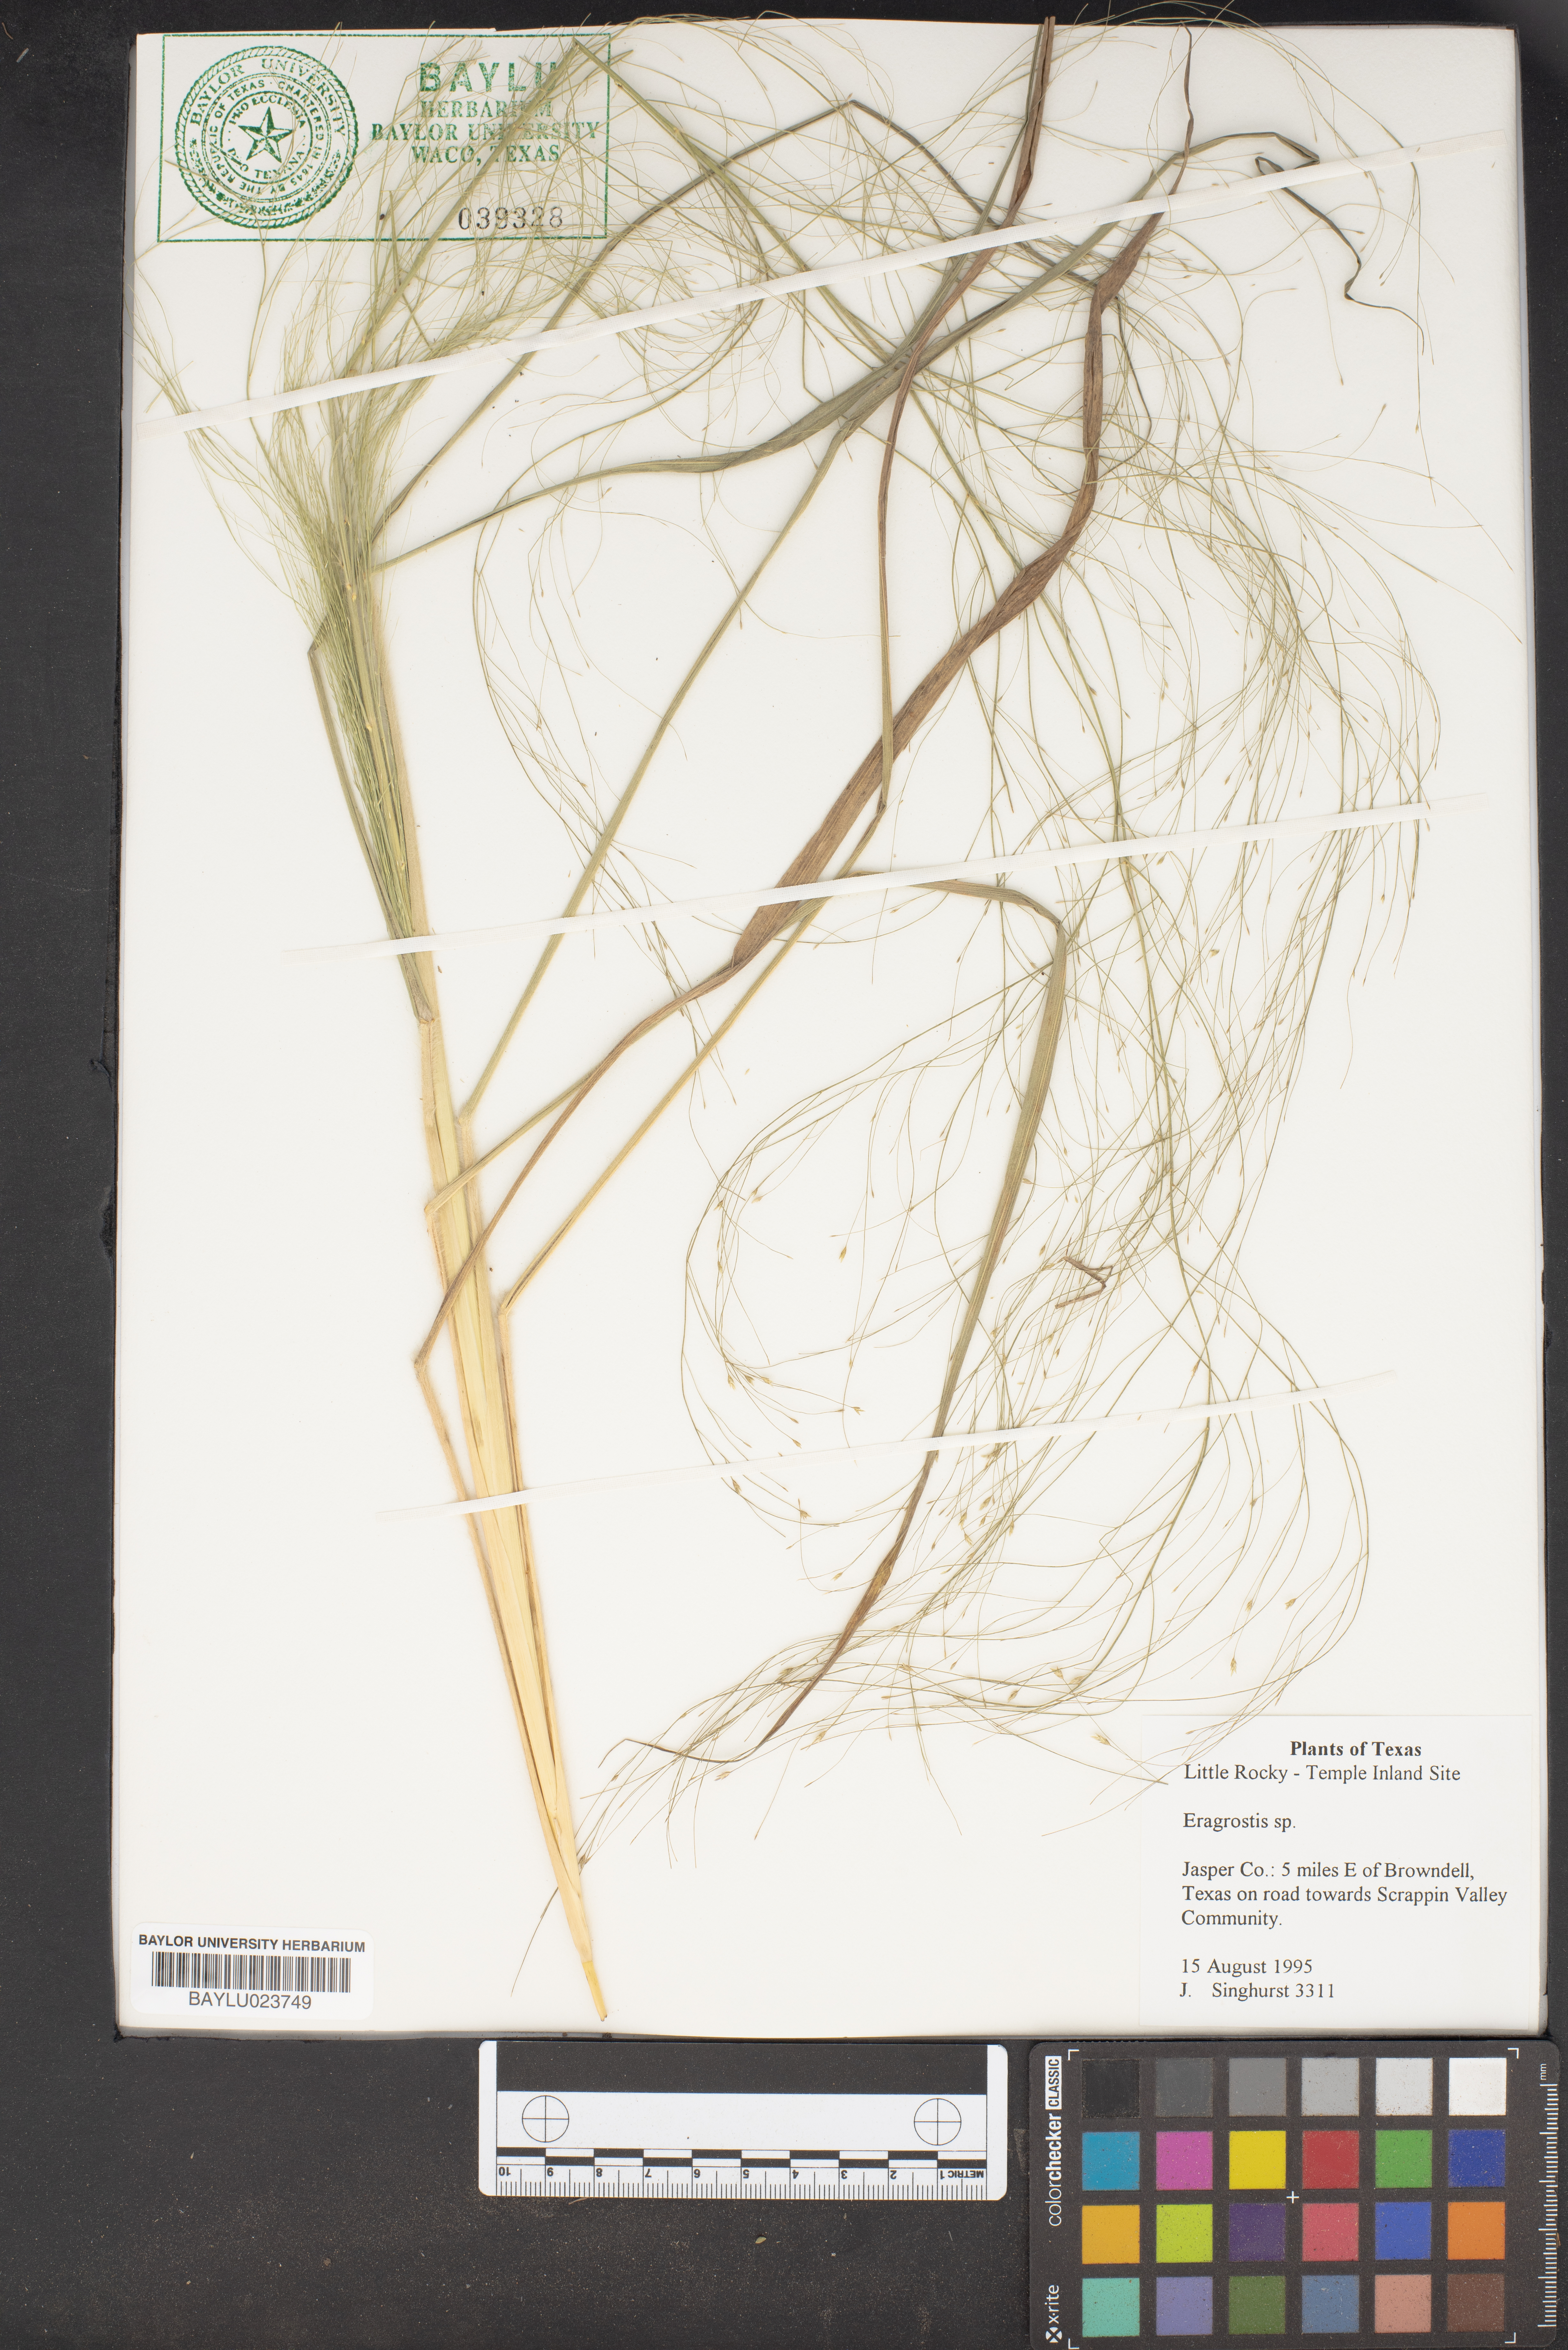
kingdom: Plantae
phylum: Tracheophyta
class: Liliopsida
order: Poales
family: Poaceae
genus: Eragrostis
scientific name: Eragrostis
